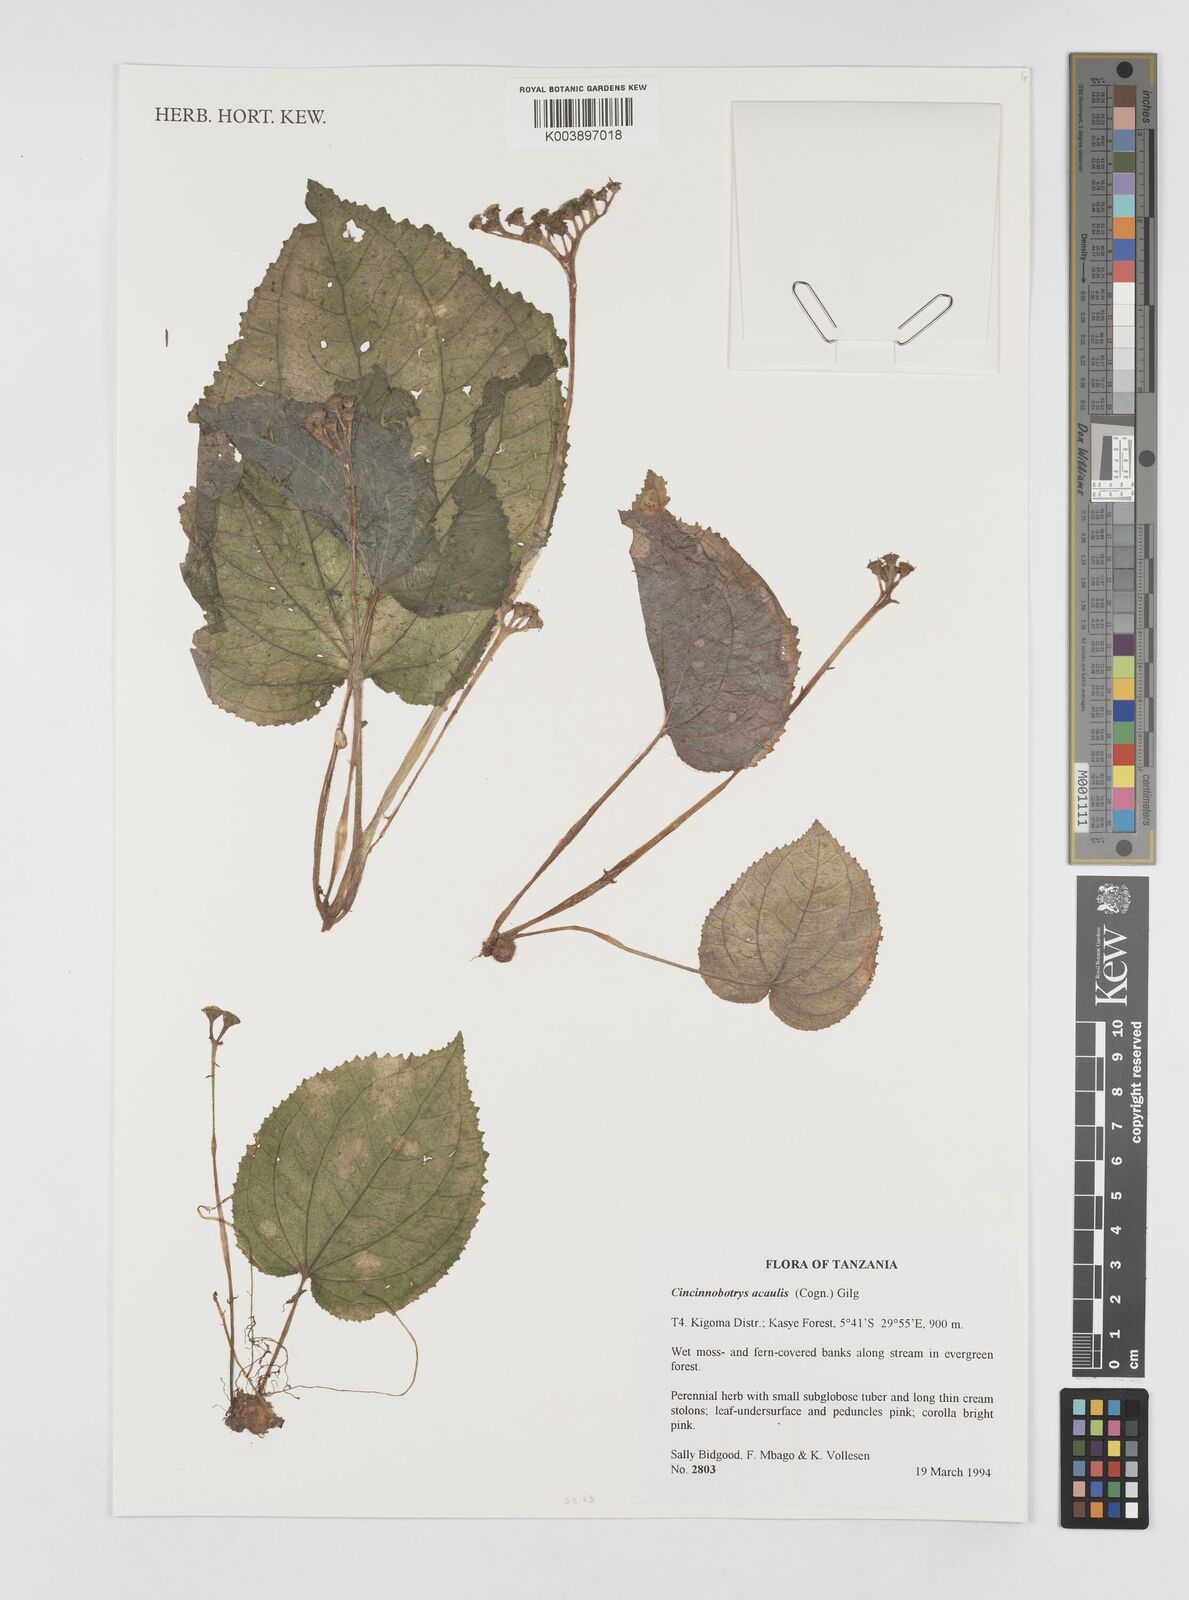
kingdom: Plantae
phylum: Tracheophyta
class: Magnoliopsida
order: Myrtales
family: Melastomataceae
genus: Cincinnobotrys
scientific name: Cincinnobotrys acaulis
